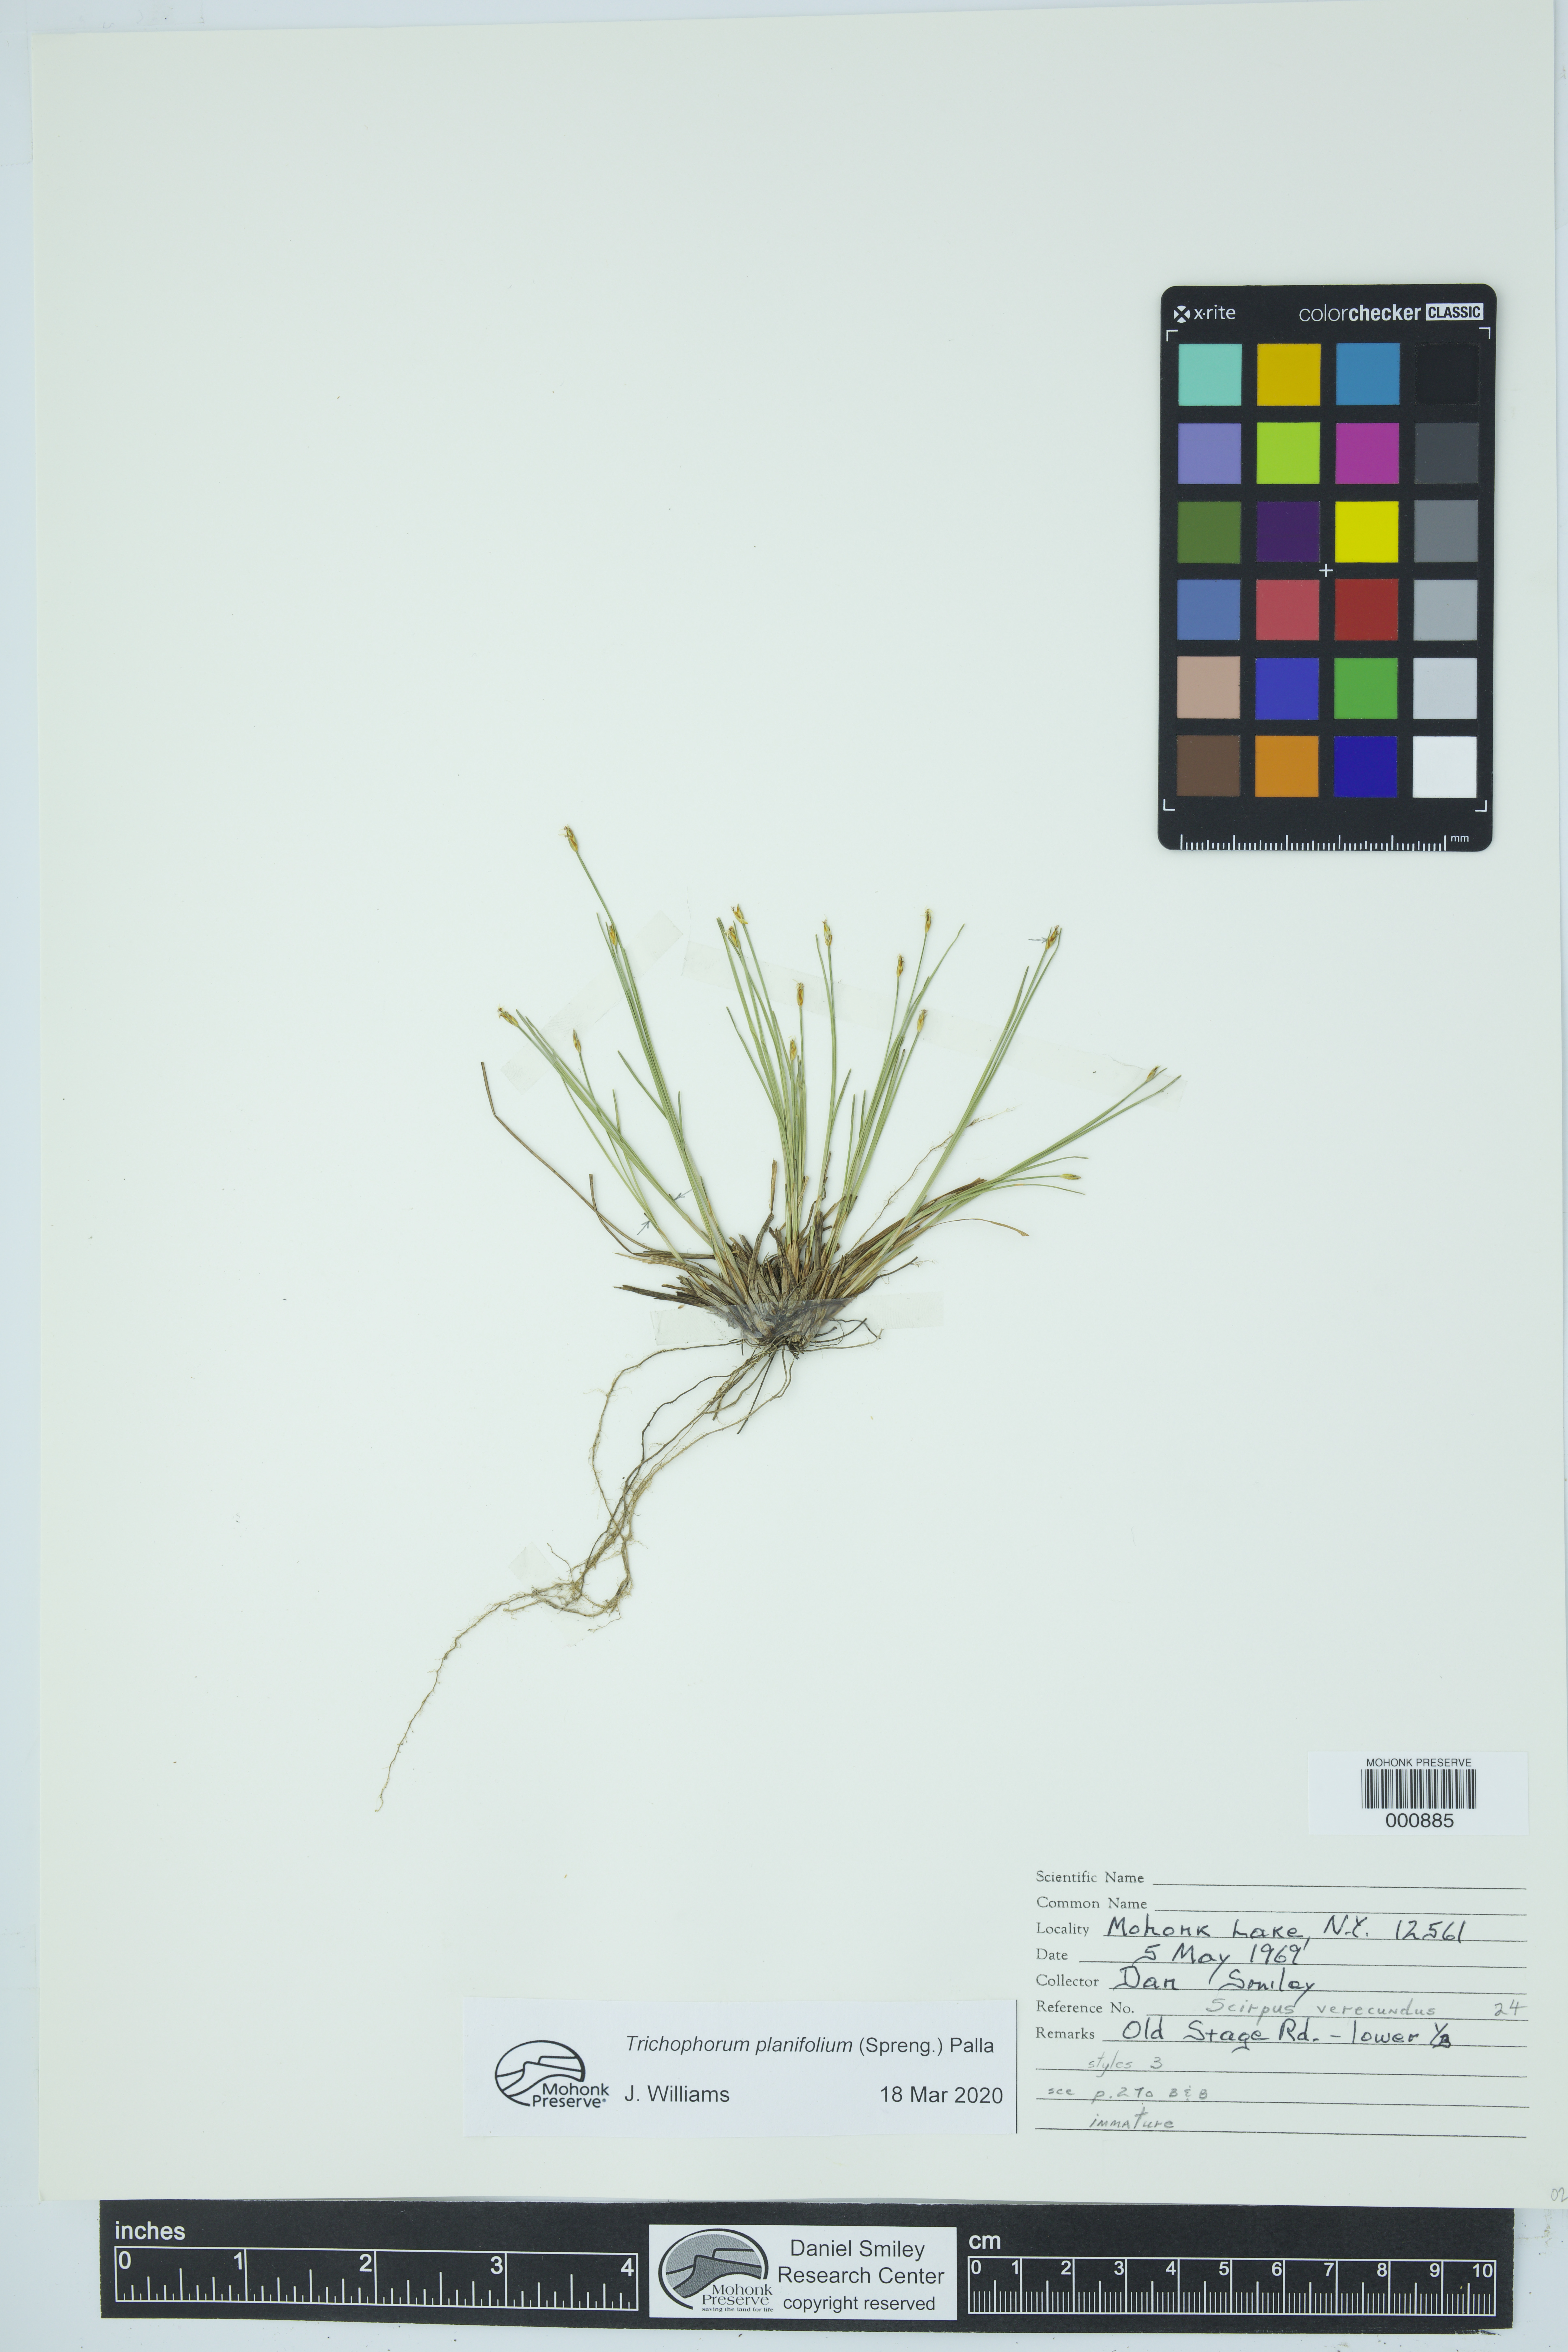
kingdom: Plantae
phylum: Tracheophyta
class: Liliopsida
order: Poales
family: Cyperaceae
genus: Trichophorum
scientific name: Trichophorum planifolium
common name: Bashful bulrush
